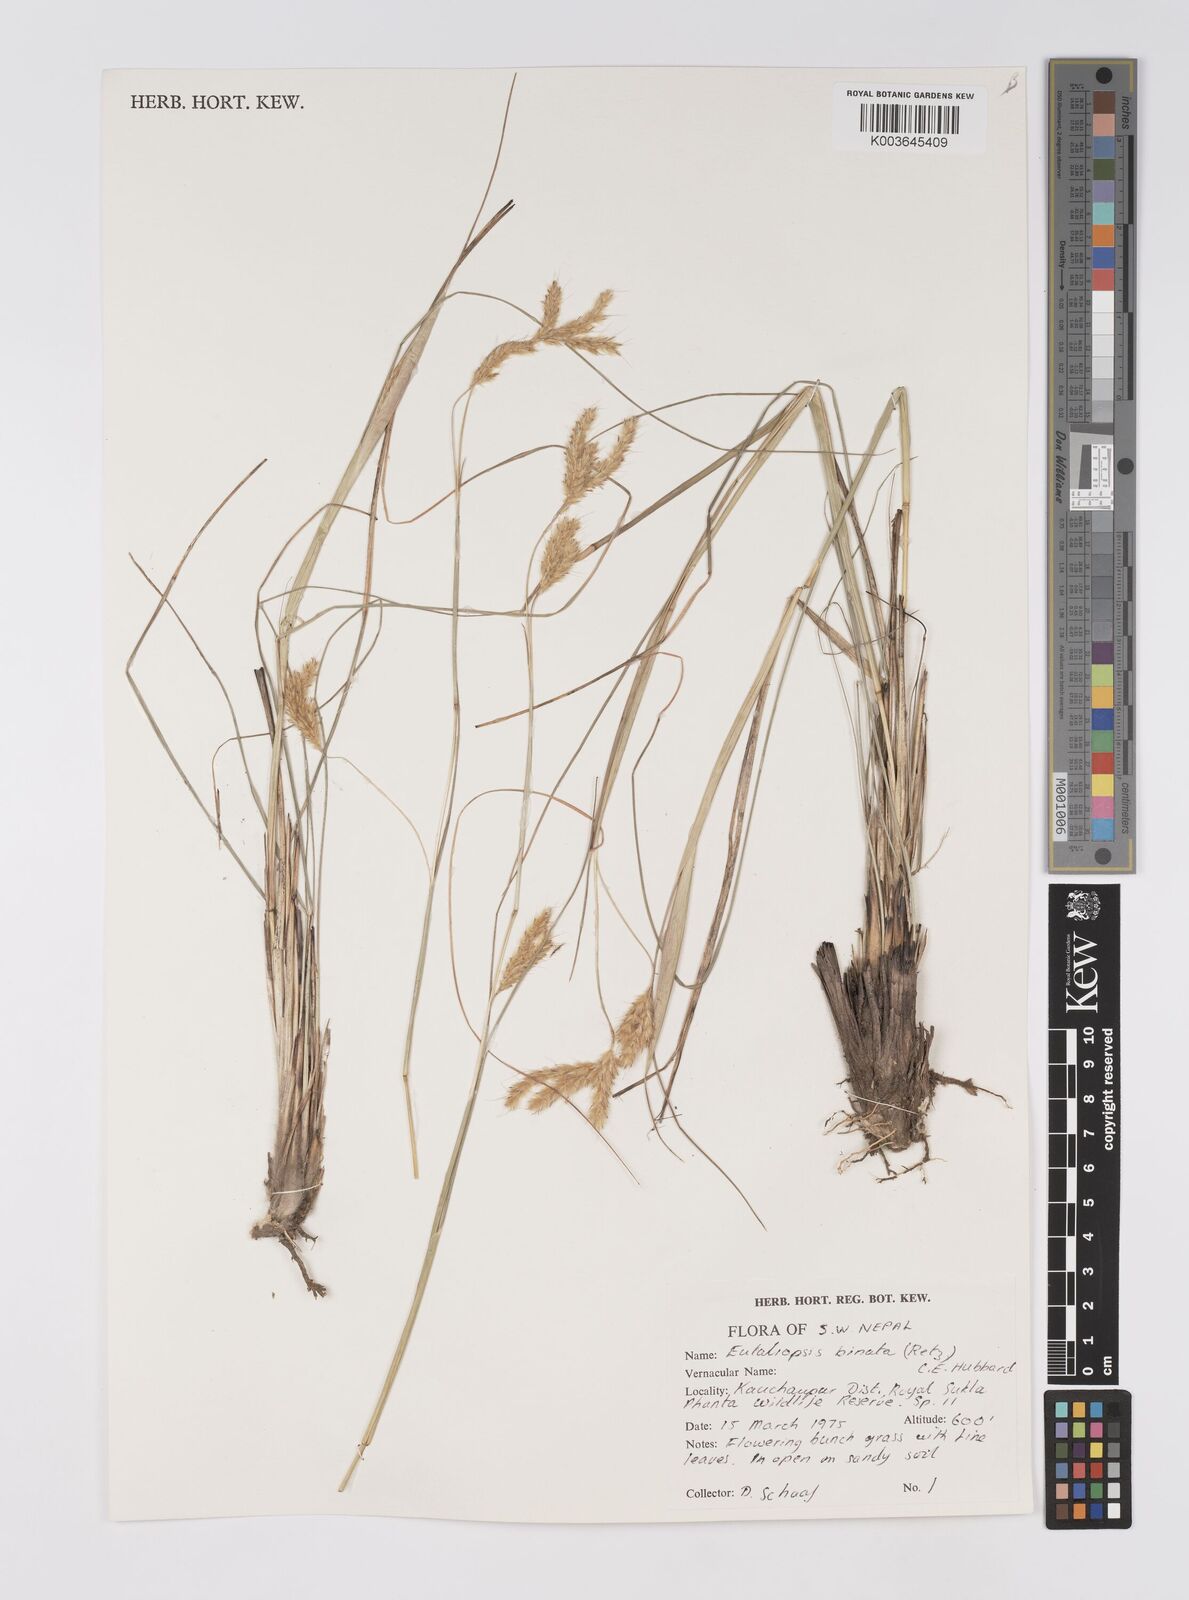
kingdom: Plantae
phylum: Tracheophyta
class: Liliopsida
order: Poales
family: Poaceae
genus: Eulaliopsis
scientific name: Eulaliopsis binata
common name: Baib grass
